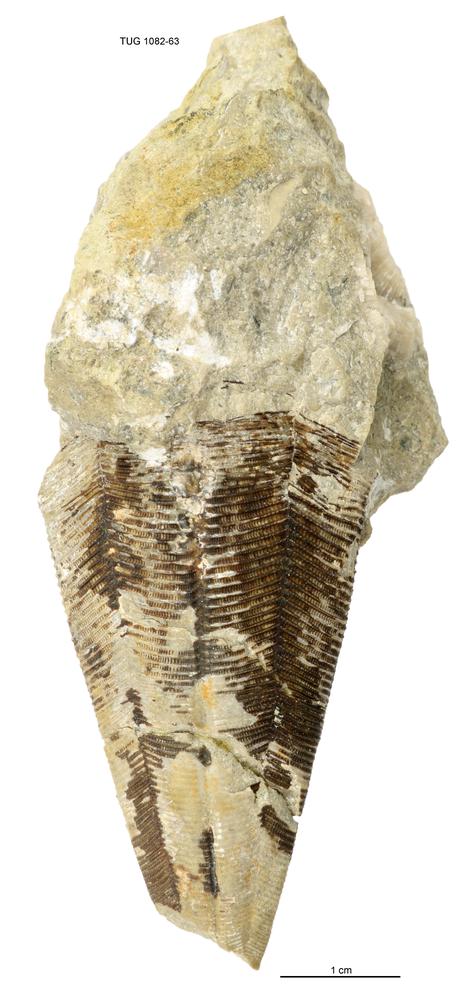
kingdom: Animalia
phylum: Cnidaria
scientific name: Cnidaria
